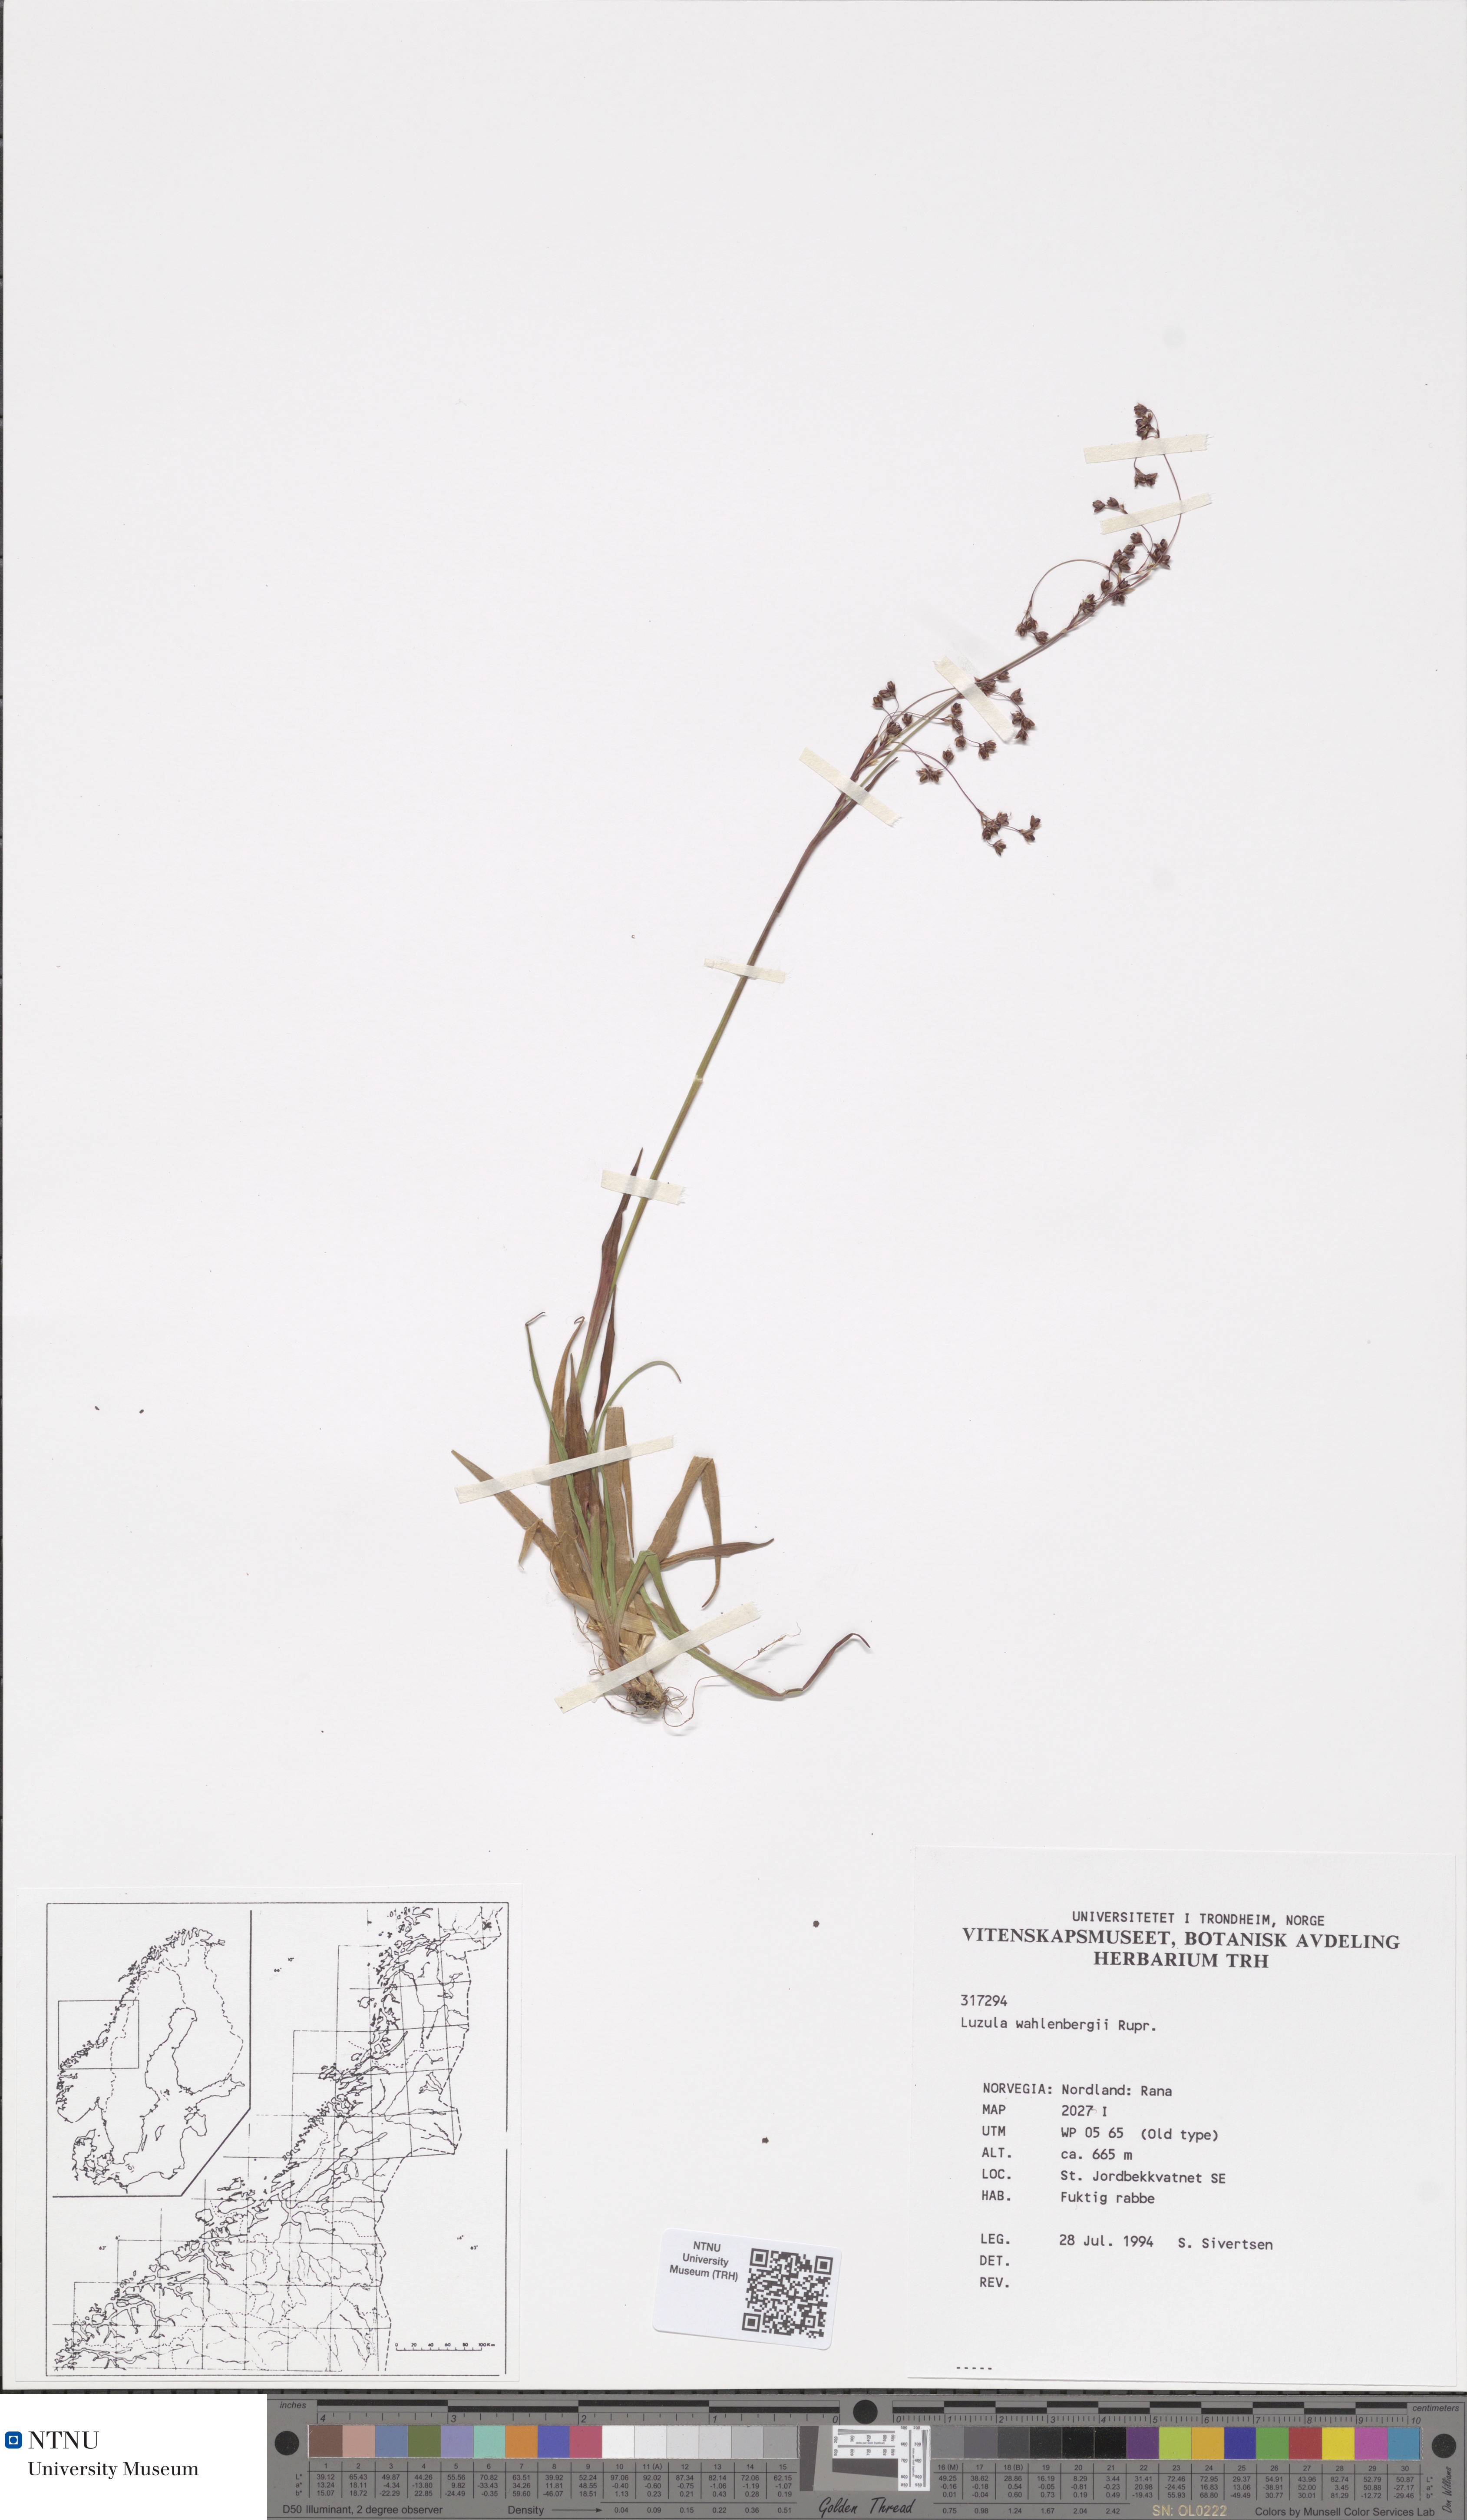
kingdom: Plantae
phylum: Tracheophyta
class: Liliopsida
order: Poales
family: Juncaceae
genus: Luzula
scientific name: Luzula wahlenbergii
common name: Wahlenberg's wood-rush
